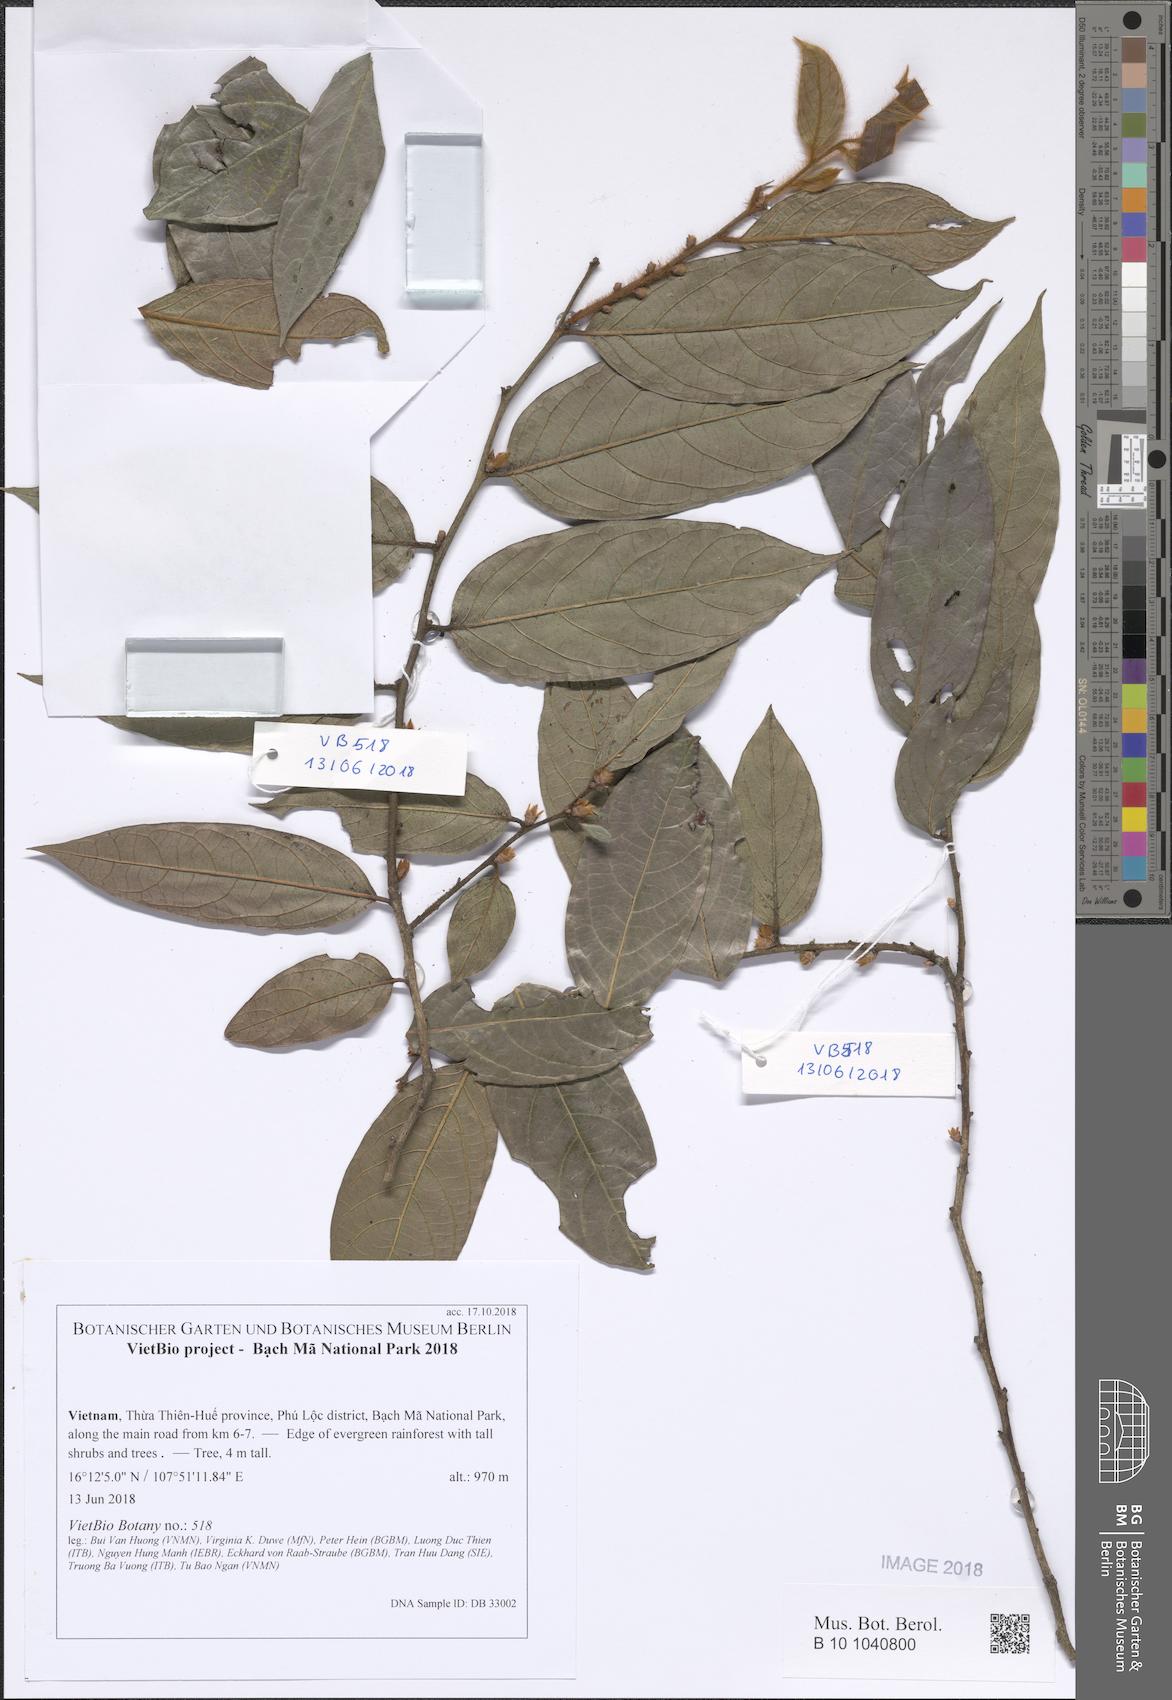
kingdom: Plantae
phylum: Tracheophyta
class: Magnoliopsida
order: Ericales
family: Ebenaceae
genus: Diospyros
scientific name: Diospyros
